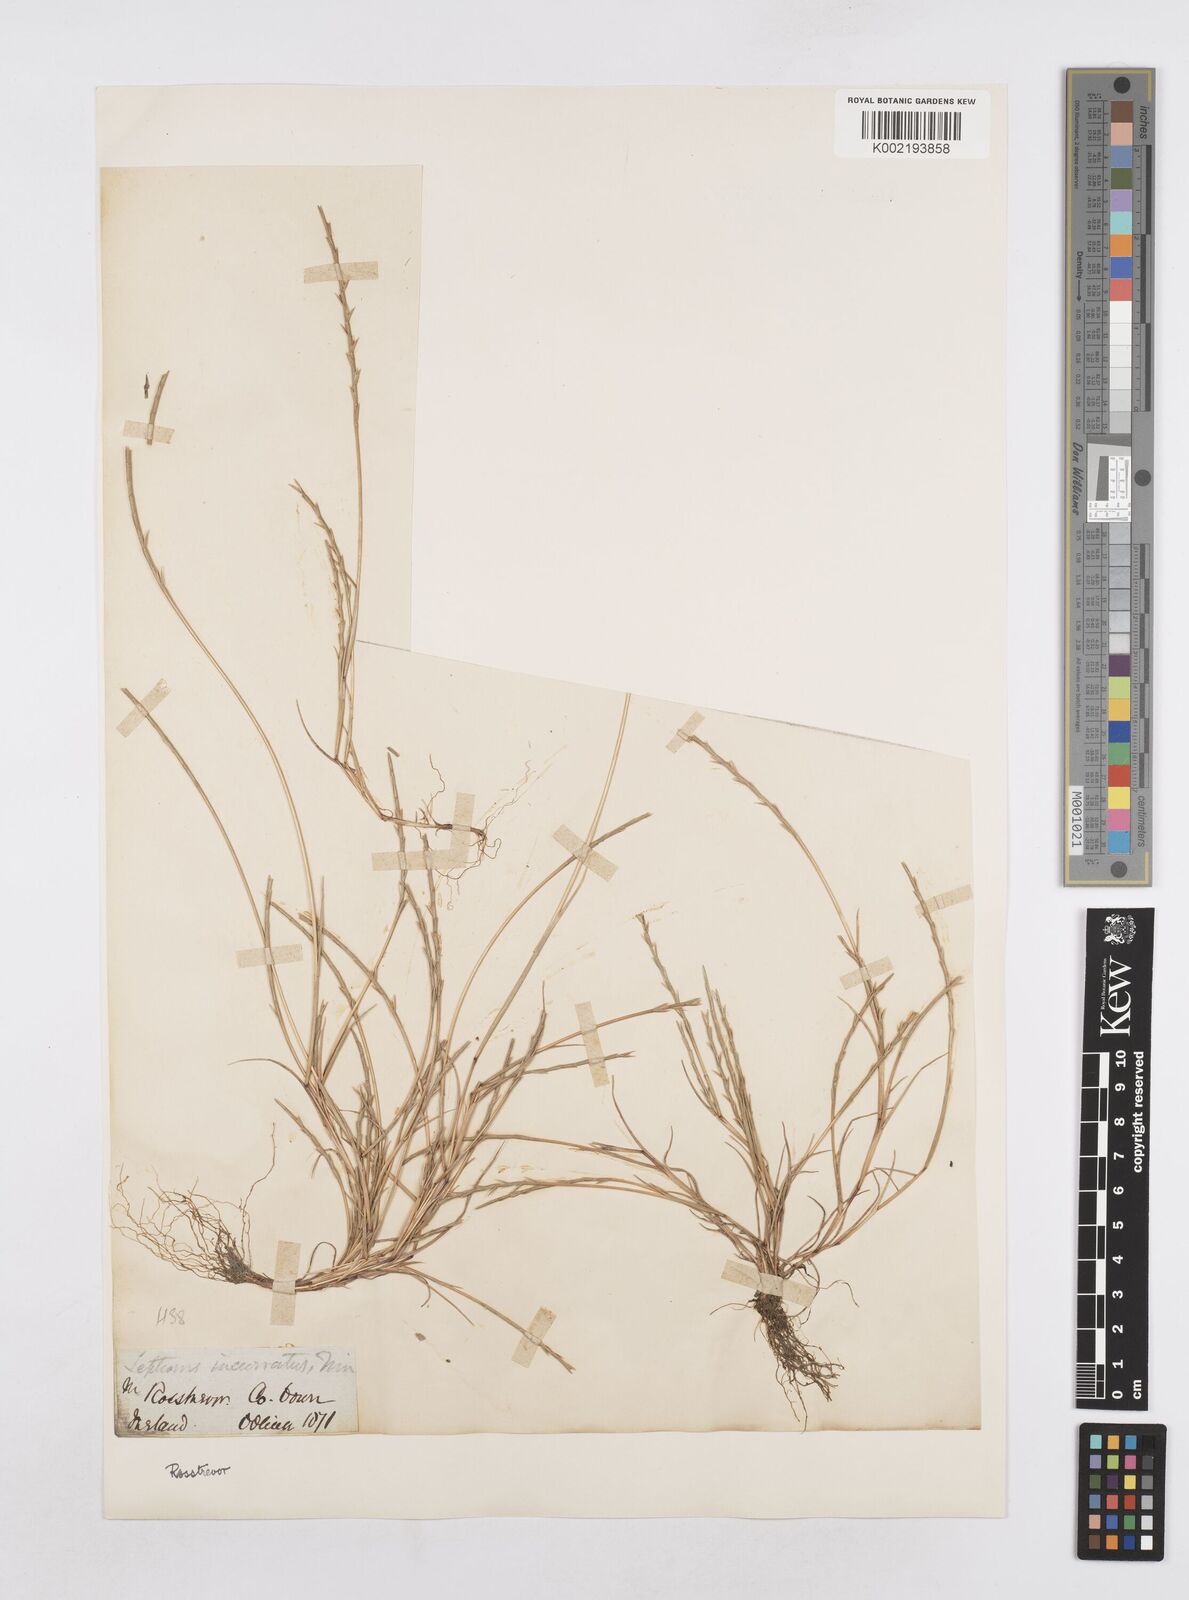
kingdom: Plantae
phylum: Tracheophyta
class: Liliopsida
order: Poales
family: Poaceae
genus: Parapholis
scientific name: Parapholis strigosa
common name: Hard-grass
